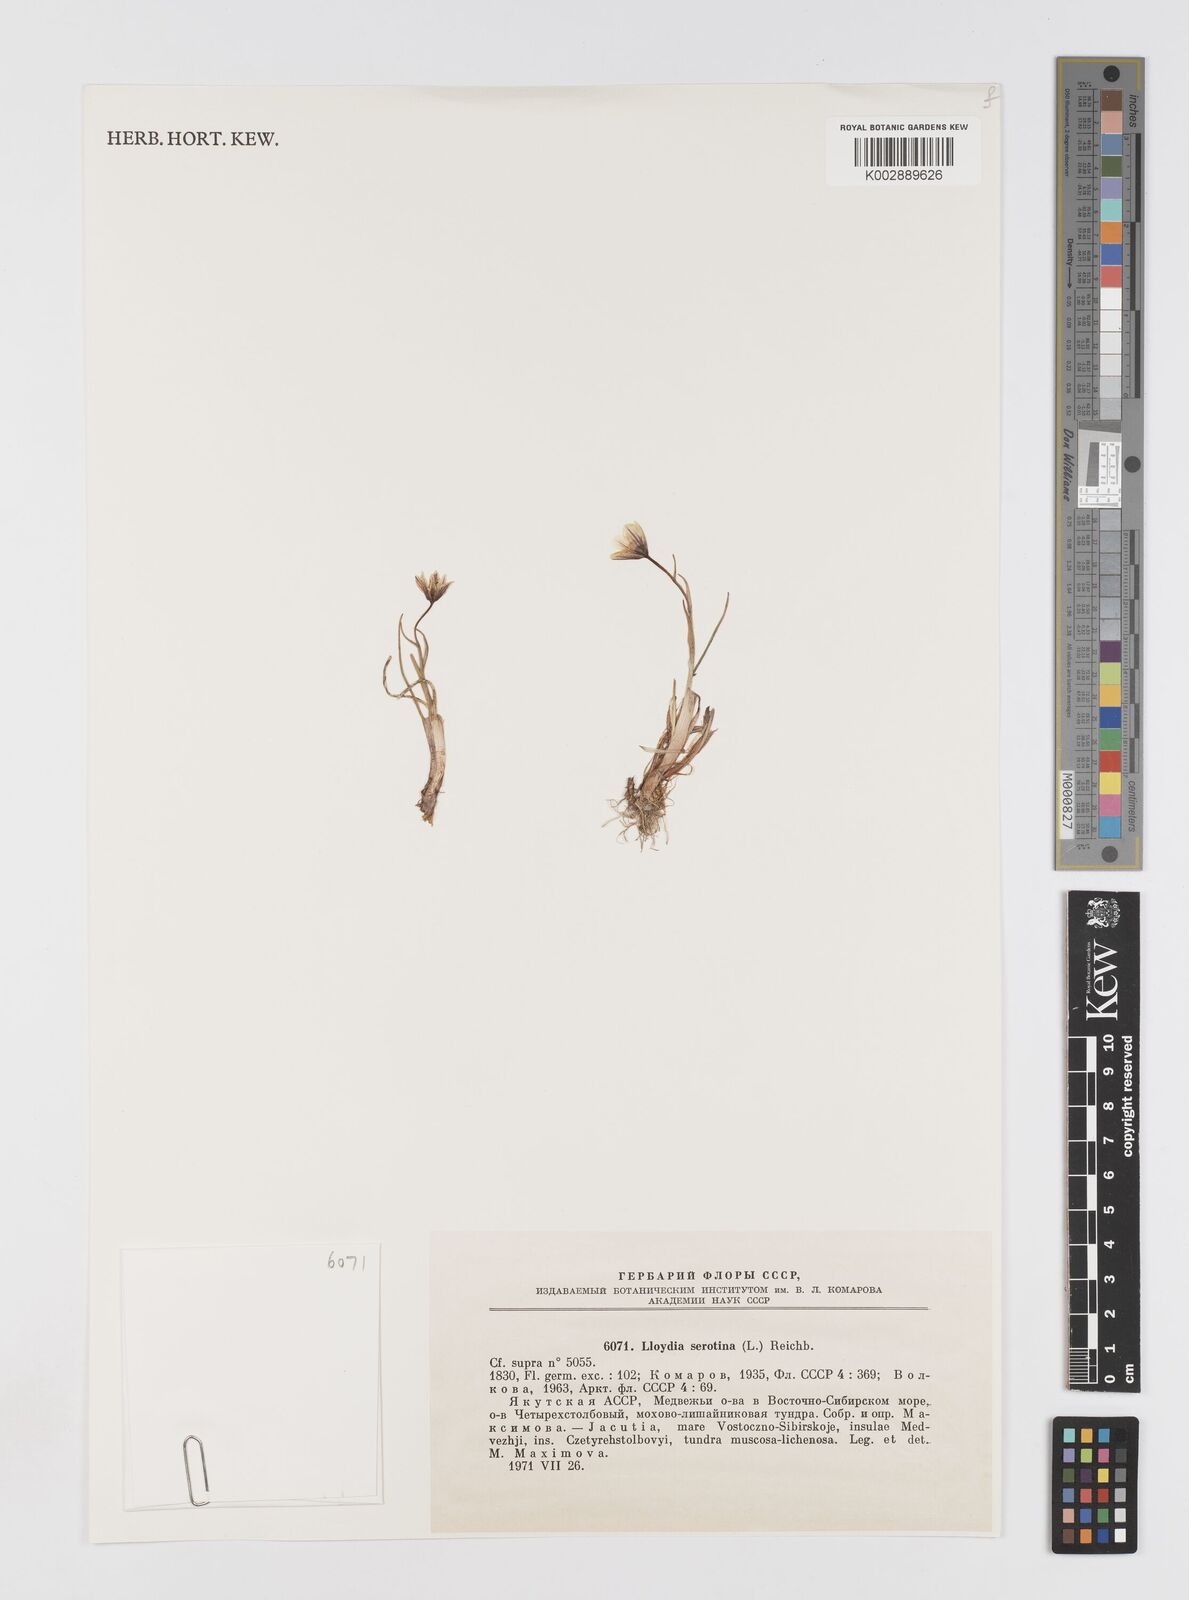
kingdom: Plantae
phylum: Tracheophyta
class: Liliopsida
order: Liliales
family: Liliaceae
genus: Gagea
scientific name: Gagea serotina
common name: Snowdon lily
